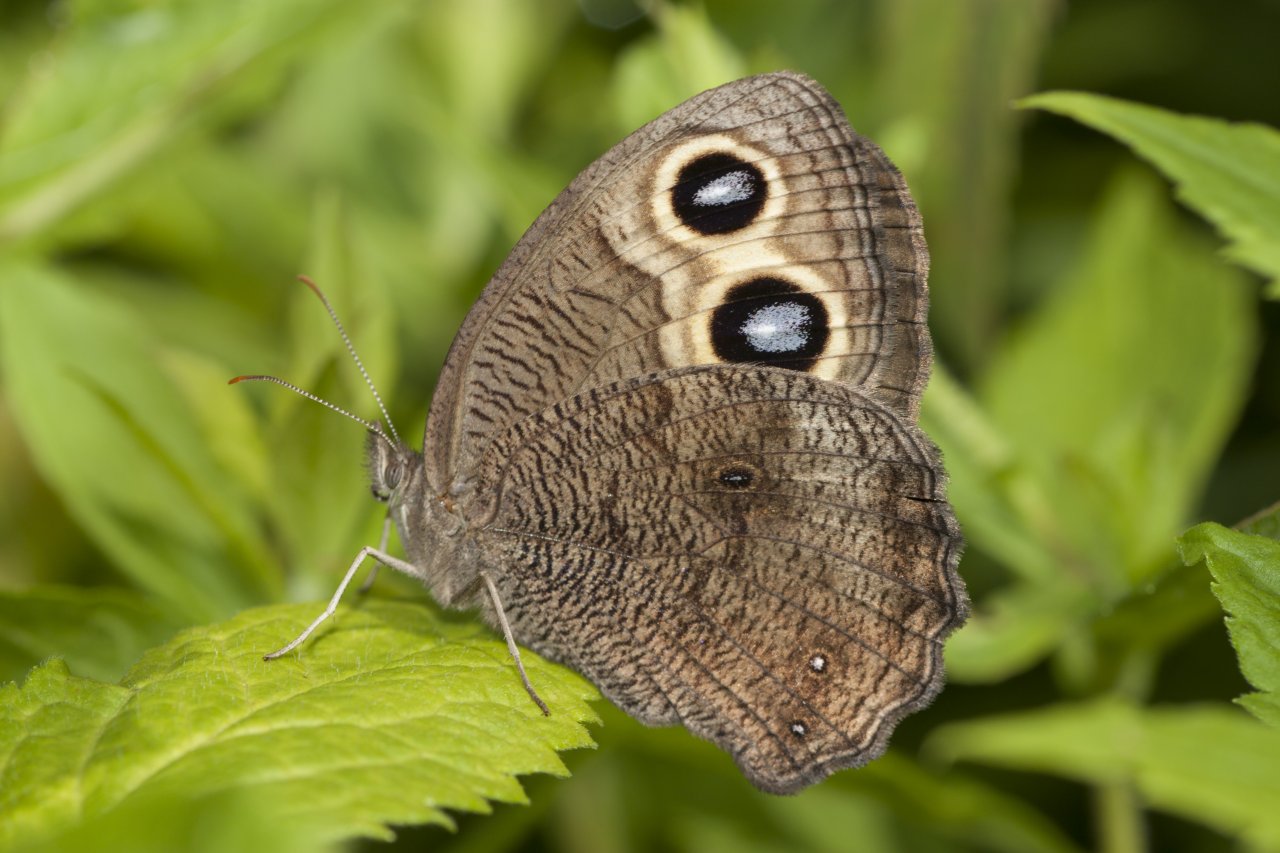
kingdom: Animalia
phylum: Arthropoda
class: Insecta
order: Lepidoptera
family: Nymphalidae
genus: Cercyonis
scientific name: Cercyonis pegala
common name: Common Wood-Nymph
